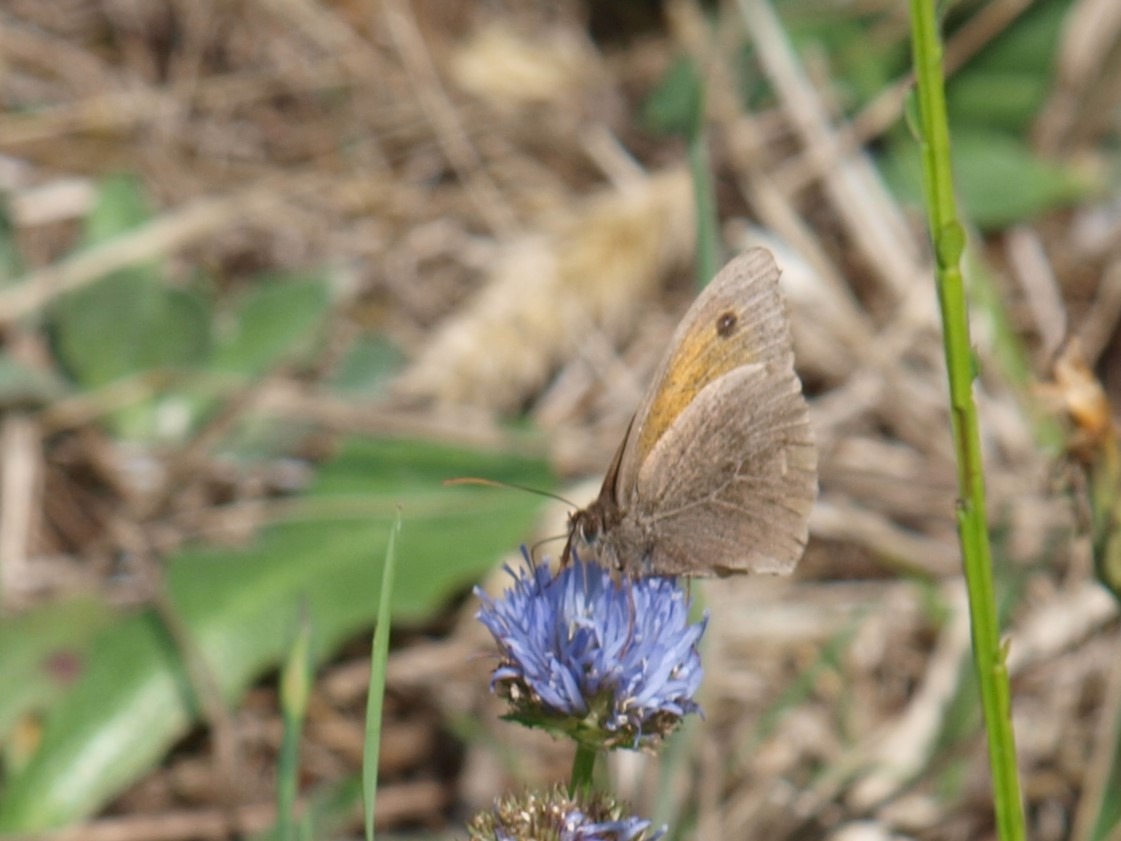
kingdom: Animalia
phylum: Arthropoda
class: Insecta
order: Lepidoptera
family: Nymphalidae
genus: Maniola
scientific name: Maniola jurtina
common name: Græsrandøje
